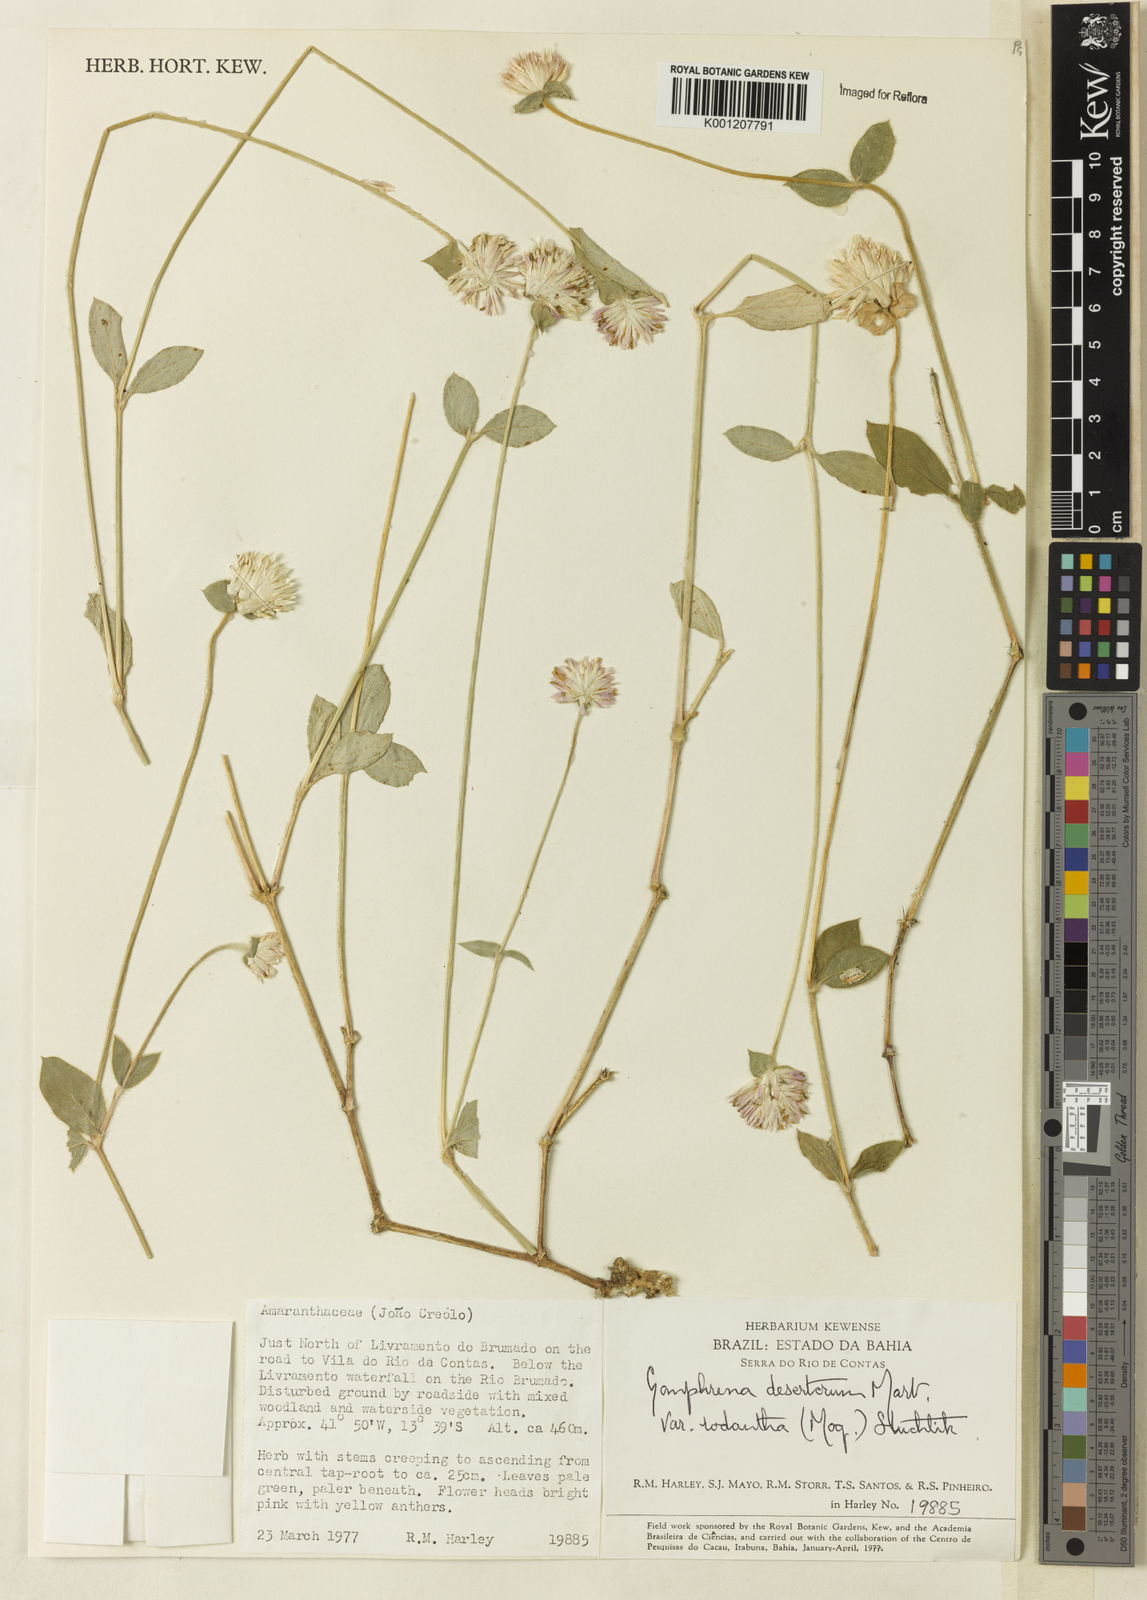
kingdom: Plantae
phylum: Tracheophyta
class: Magnoliopsida
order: Caryophyllales
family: Amaranthaceae
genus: Gomphrena
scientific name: Gomphrena desertorum
